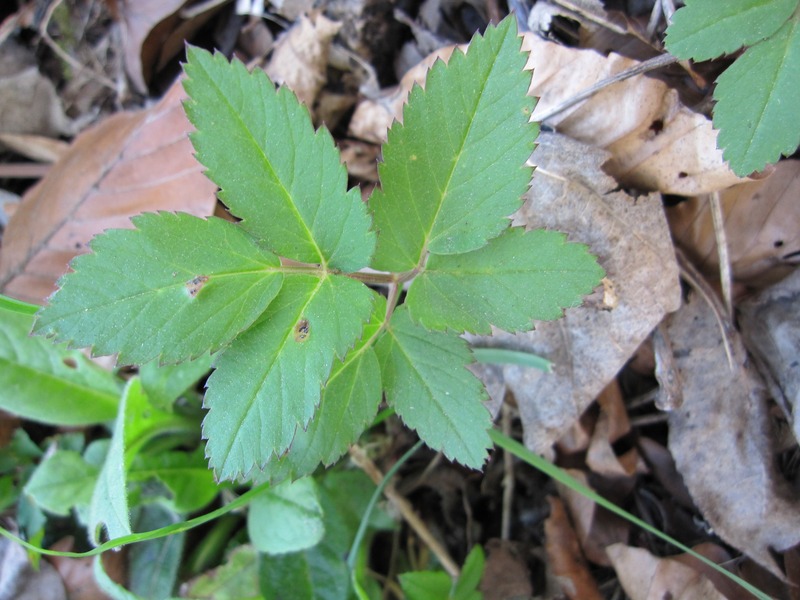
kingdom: Fungi
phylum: Basidiomycota
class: Pucciniomycetes
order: Pucciniales
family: Pucciniaceae
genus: Puccinia
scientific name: Puccinia
